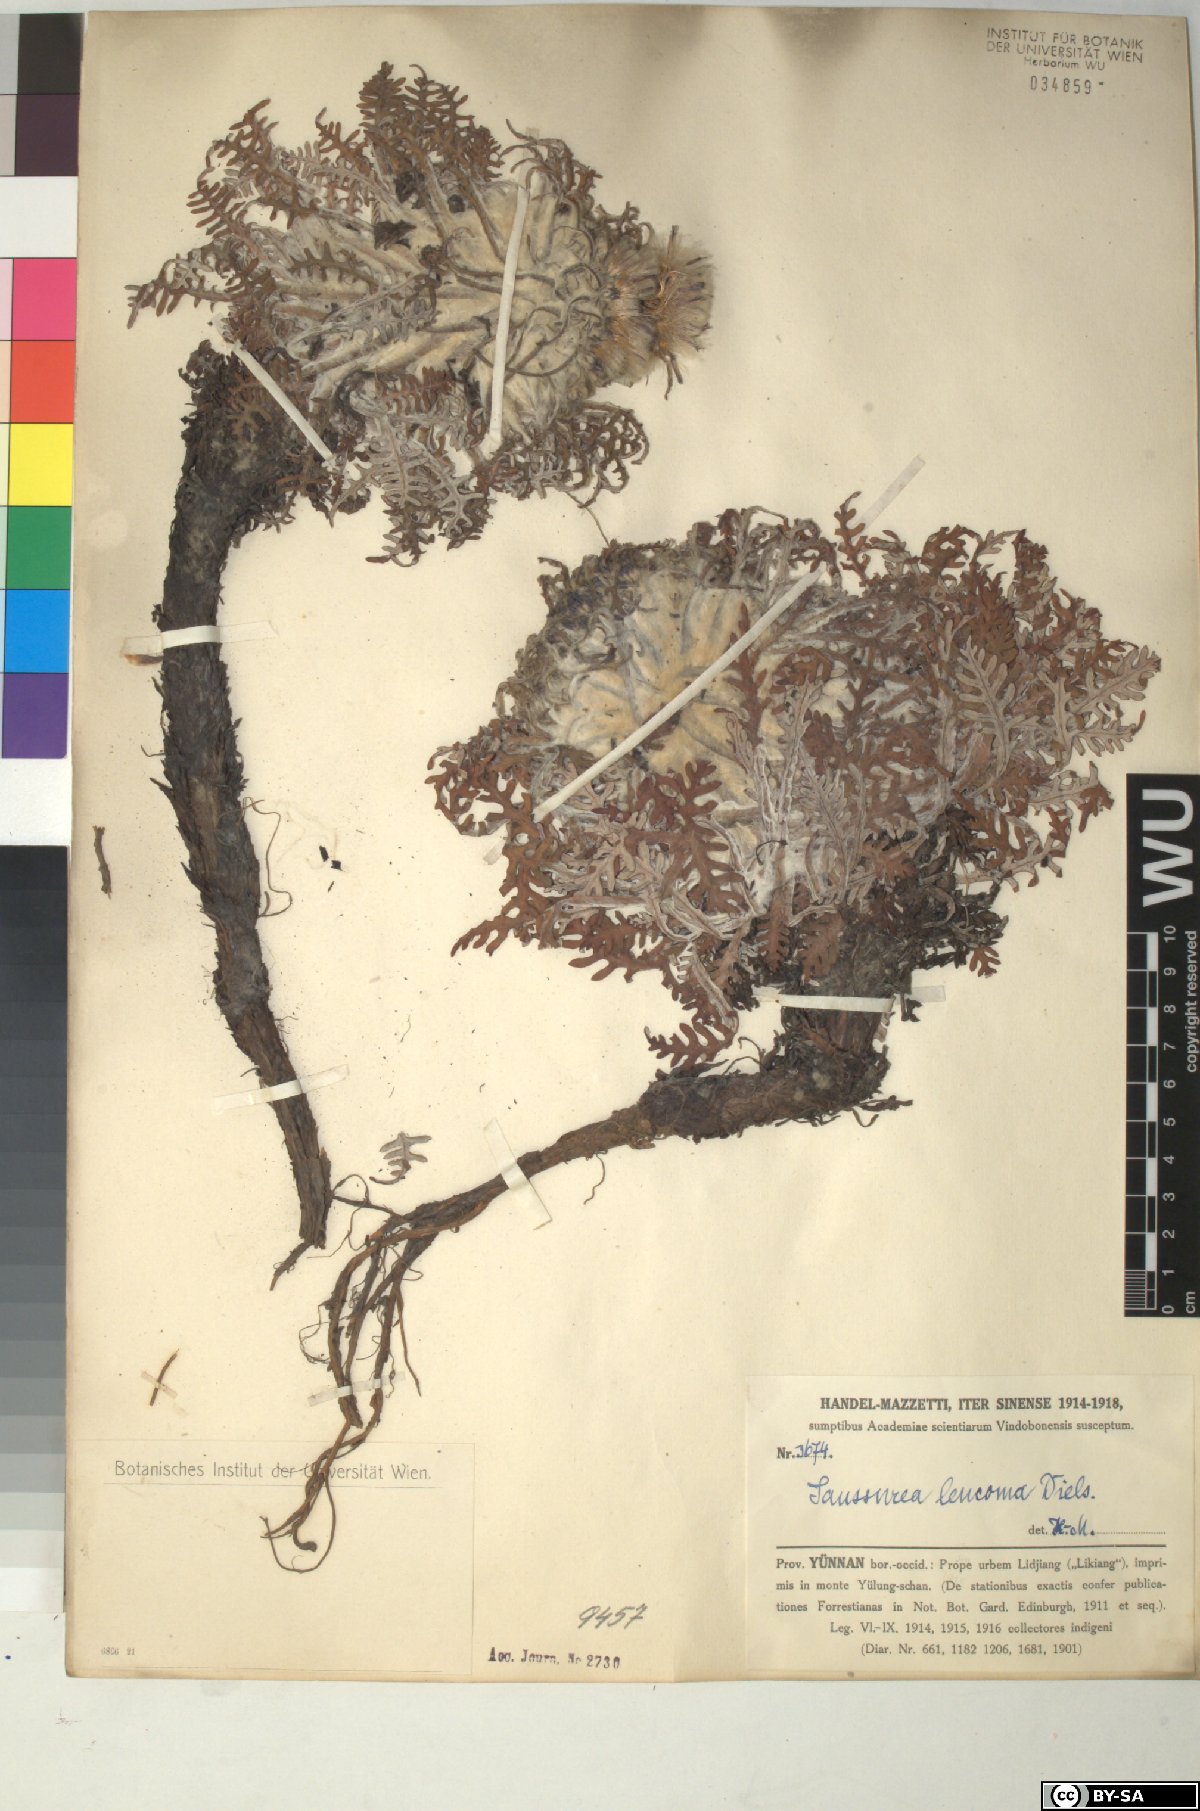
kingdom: Plantae
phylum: Tracheophyta
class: Magnoliopsida
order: Asterales
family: Asteraceae
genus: Saussurea
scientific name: Saussurea leucoma
